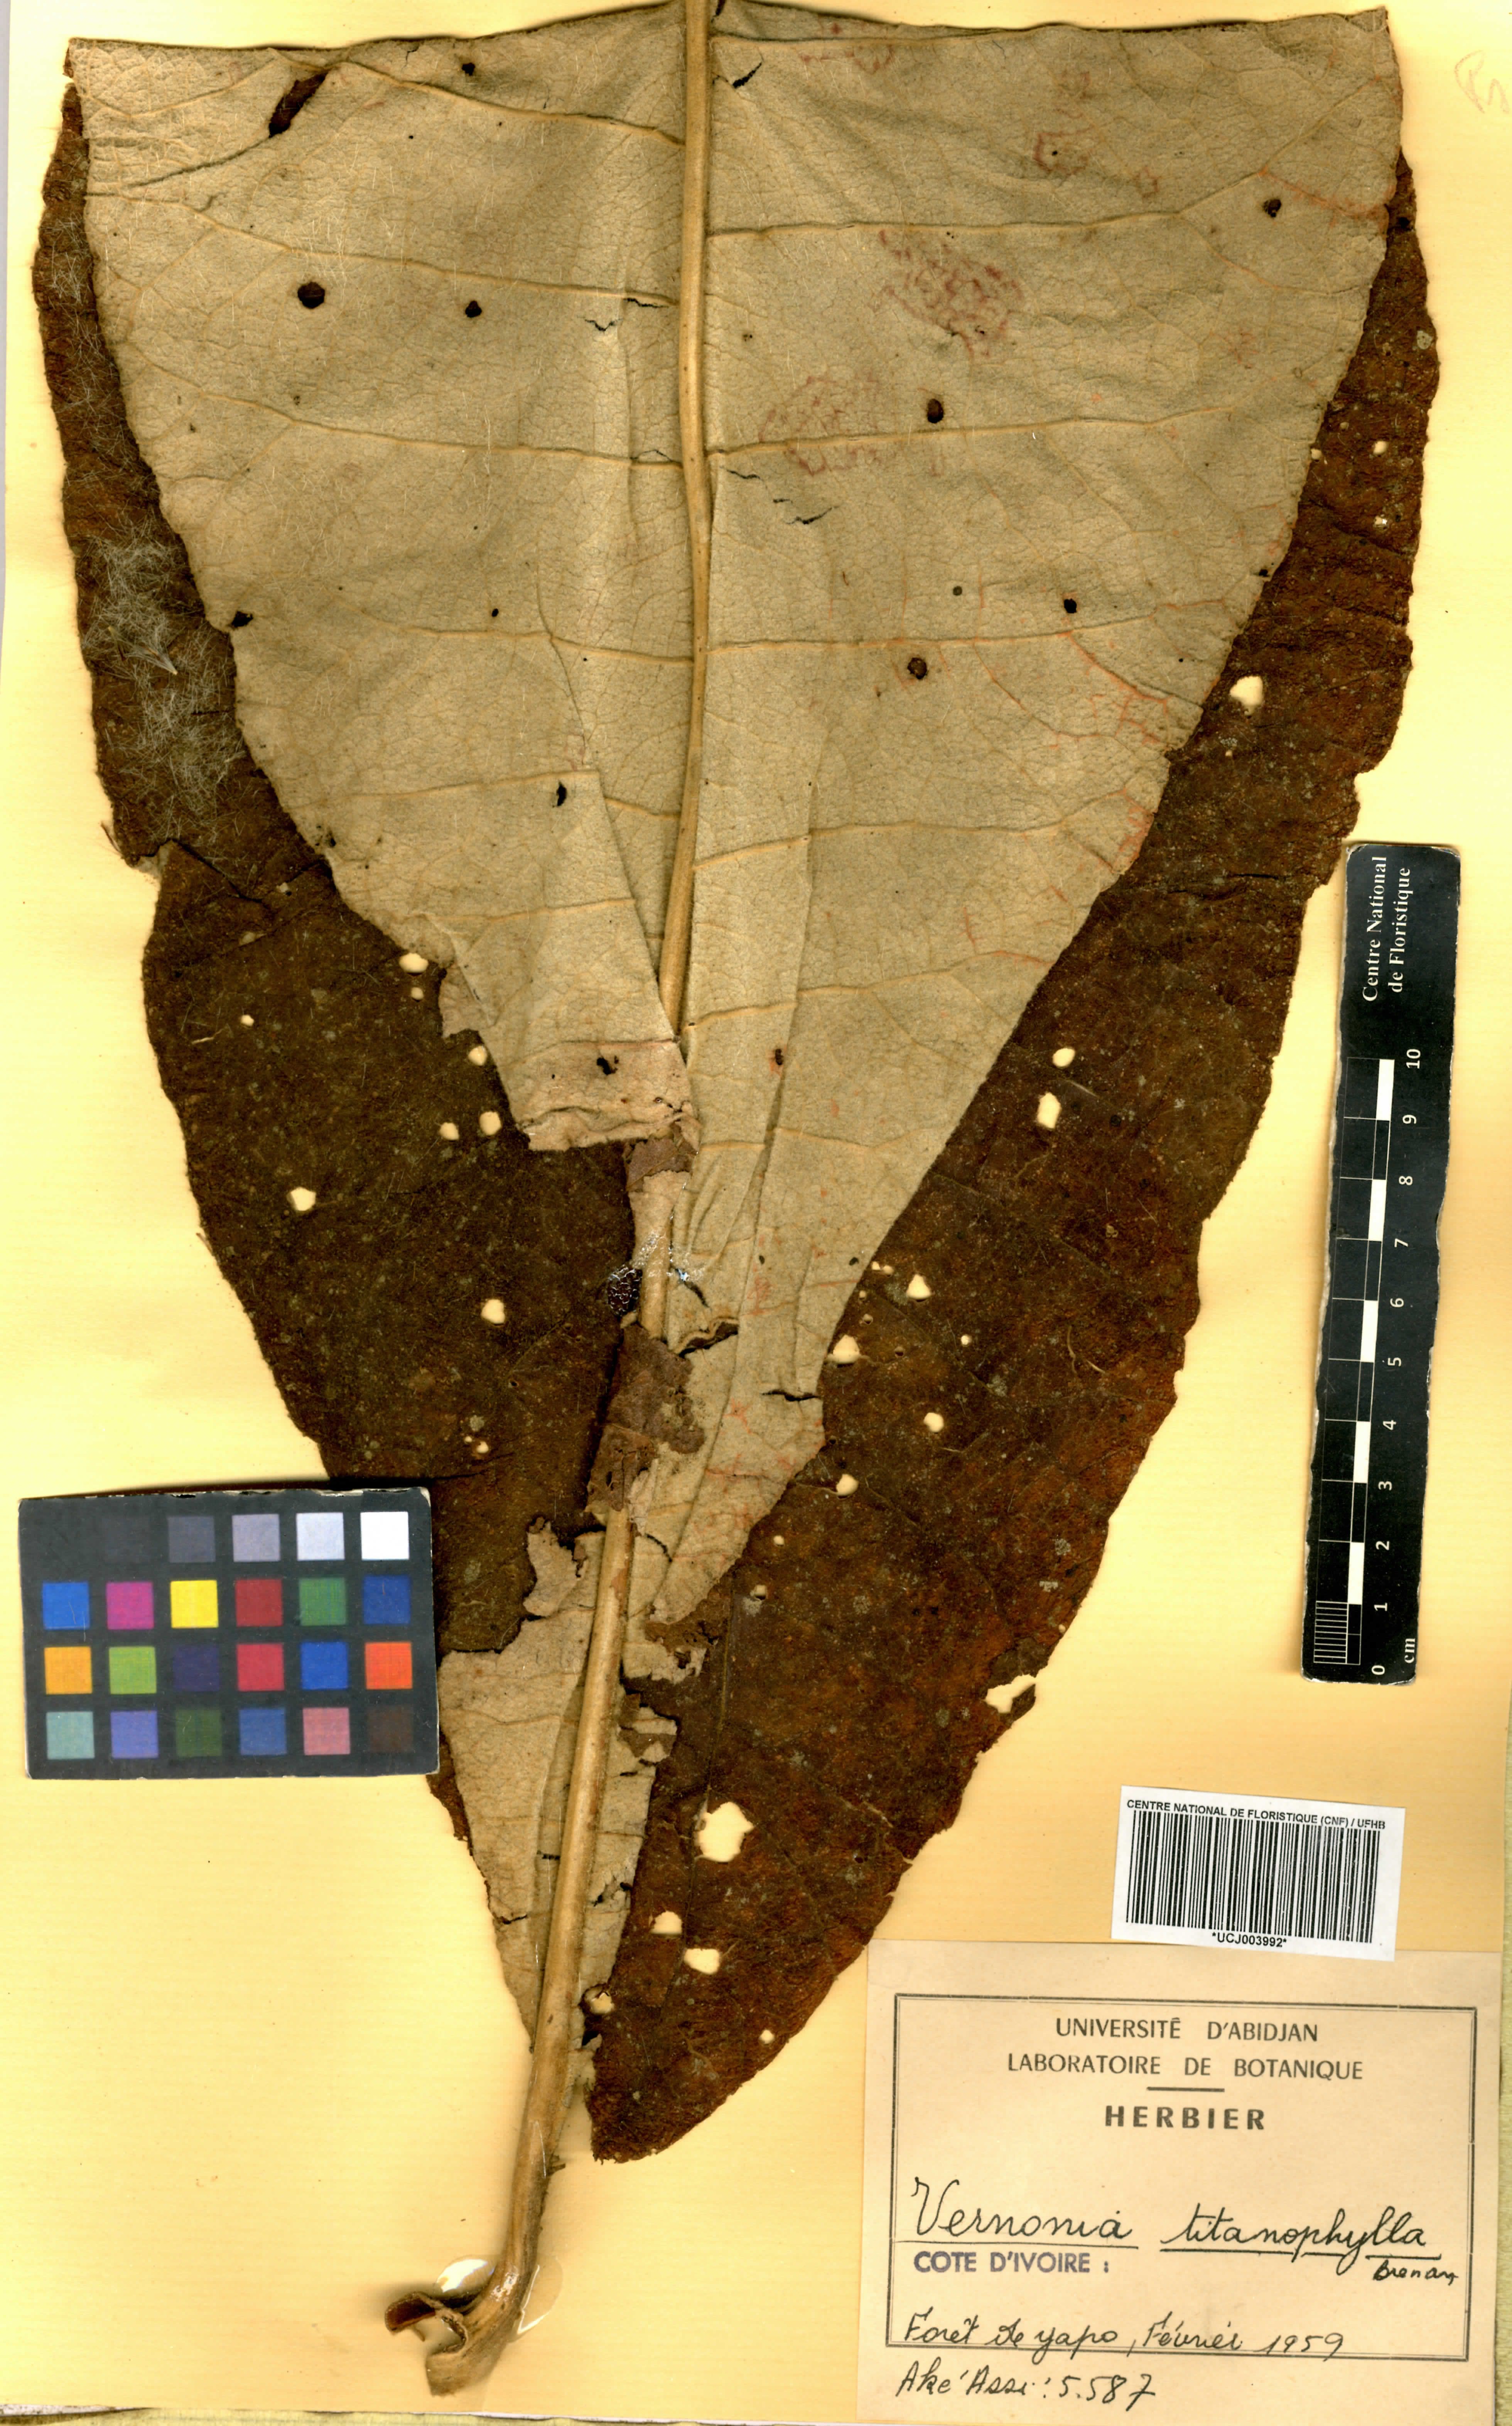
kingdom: Plantae
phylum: Tracheophyta
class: Magnoliopsida
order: Asterales
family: Asteraceae
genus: Brenandendron
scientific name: Brenandendron titanophyllum
